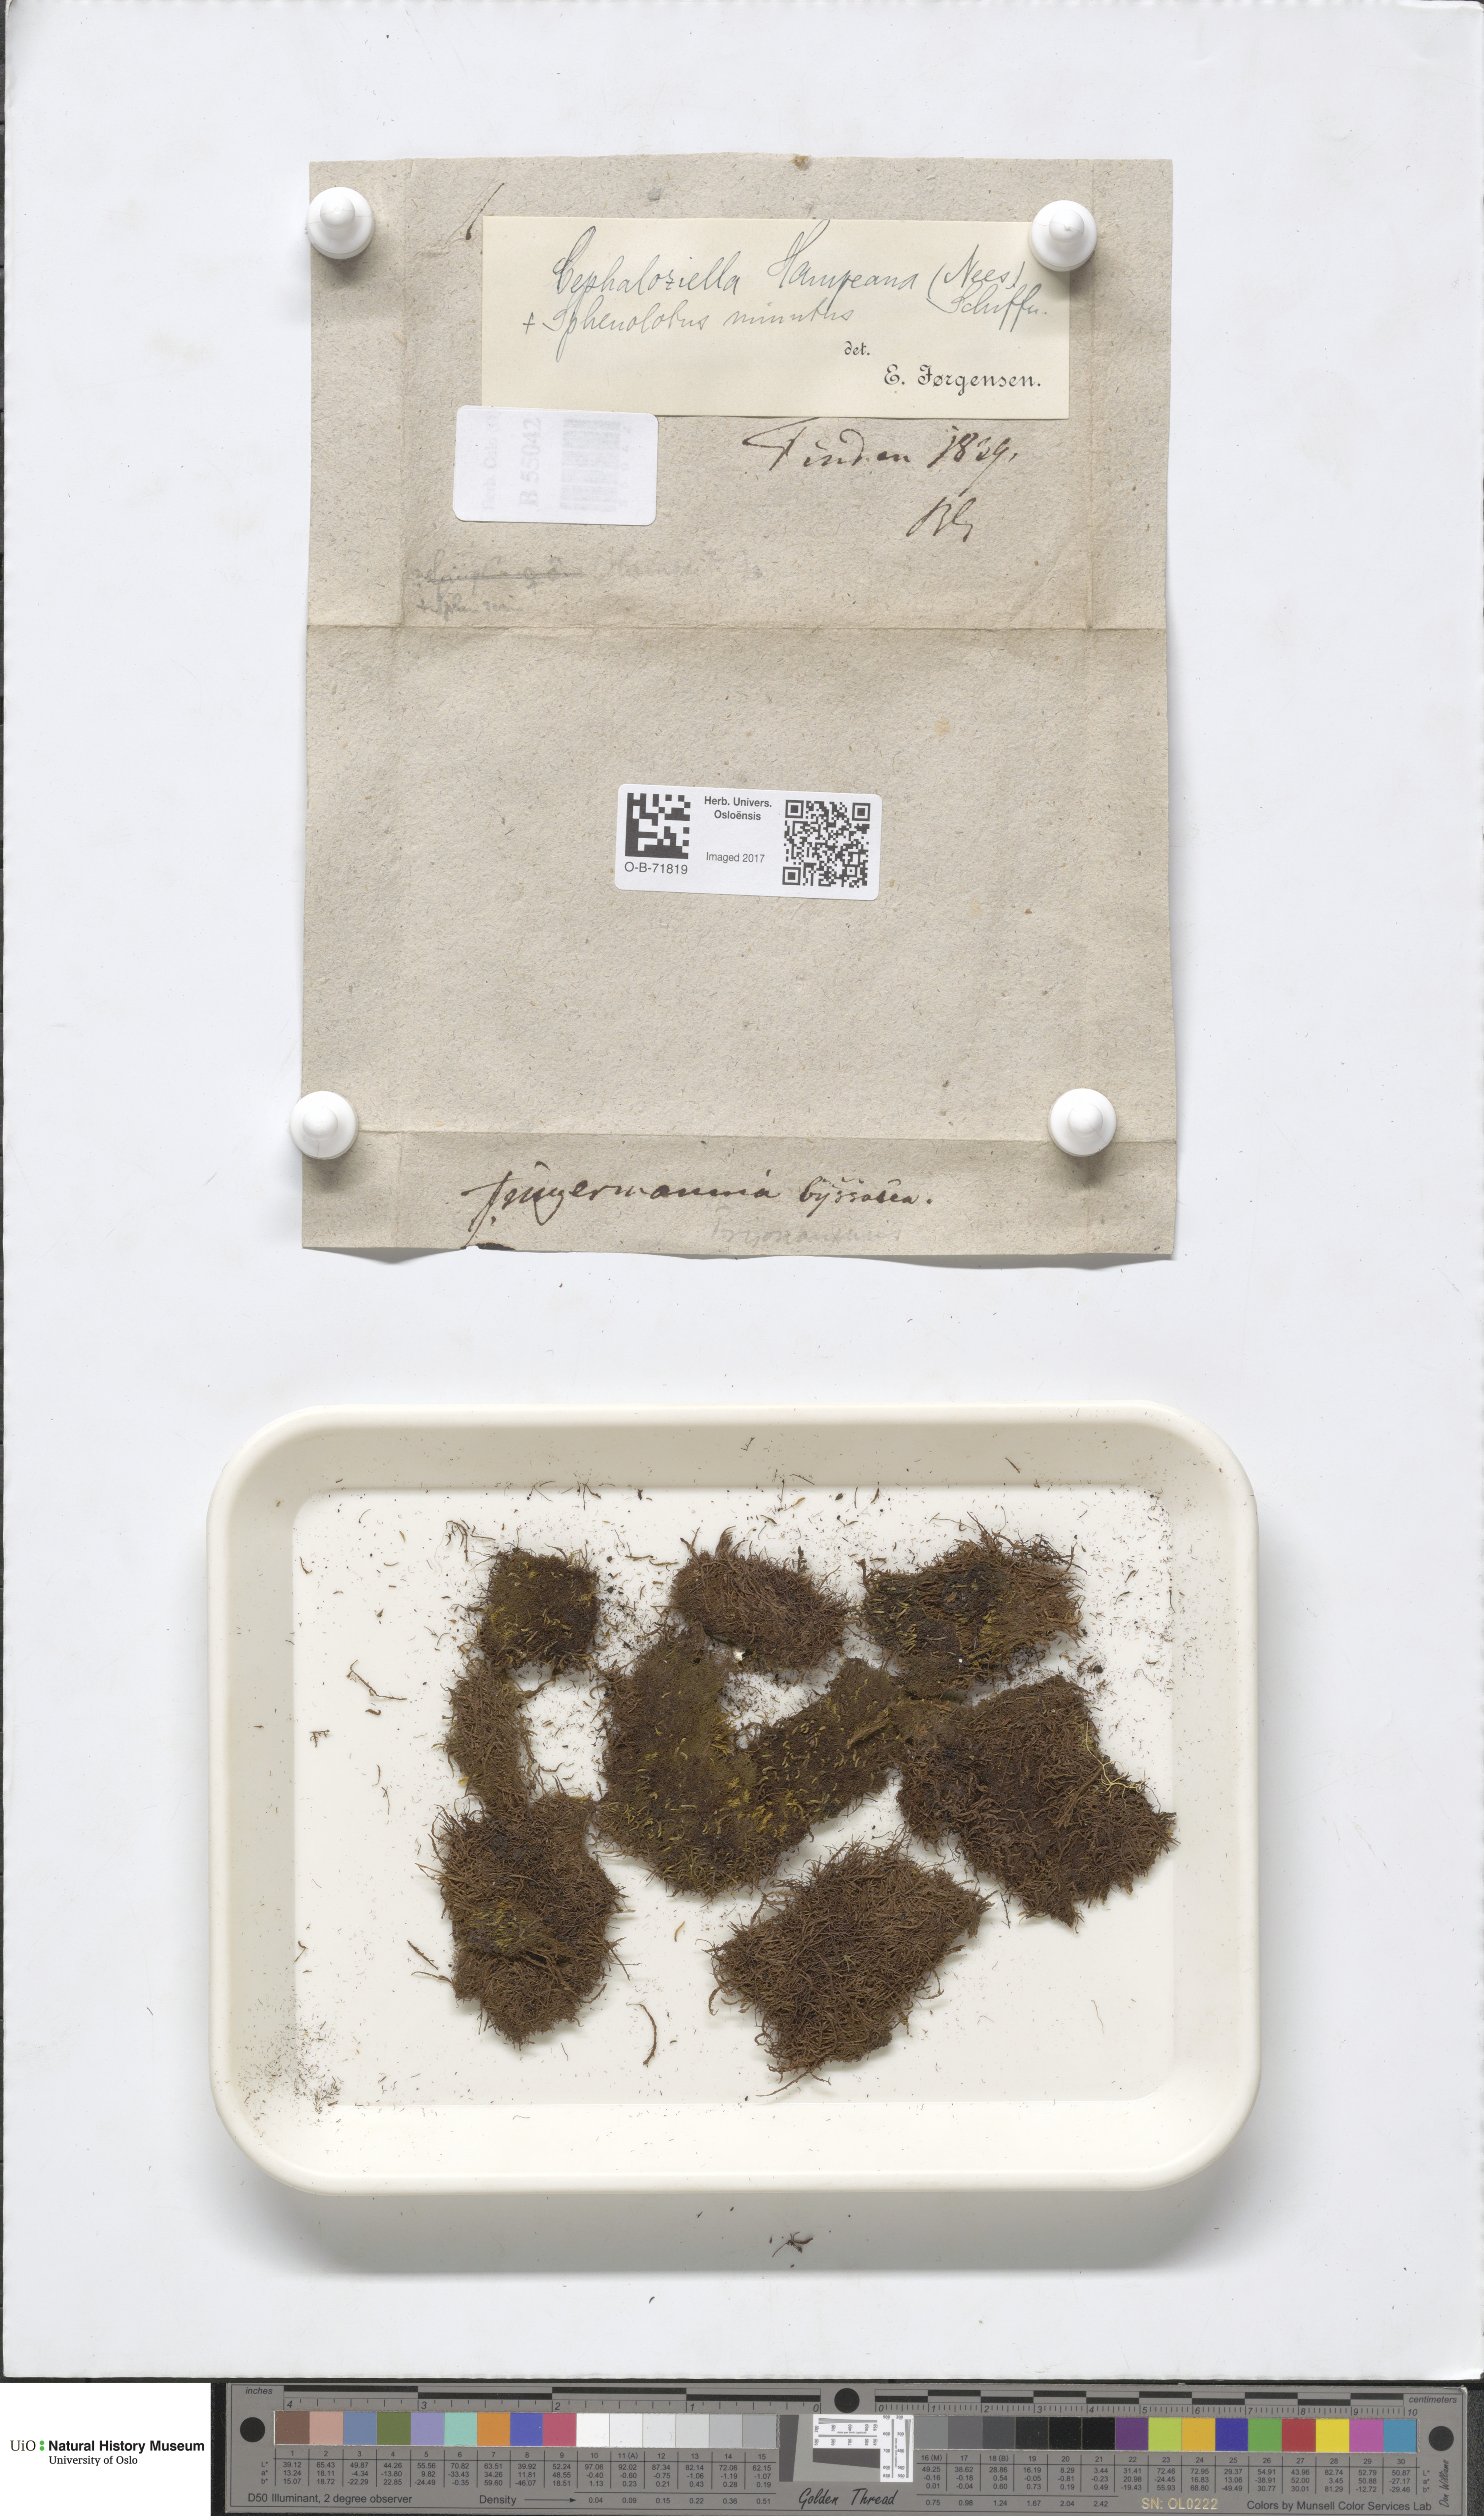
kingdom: Plantae
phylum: Marchantiophyta
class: Jungermanniopsida
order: Jungermanniales
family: Cephaloziellaceae
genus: Cephaloziella
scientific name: Cephaloziella hampeana
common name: Hampe s threadwort
